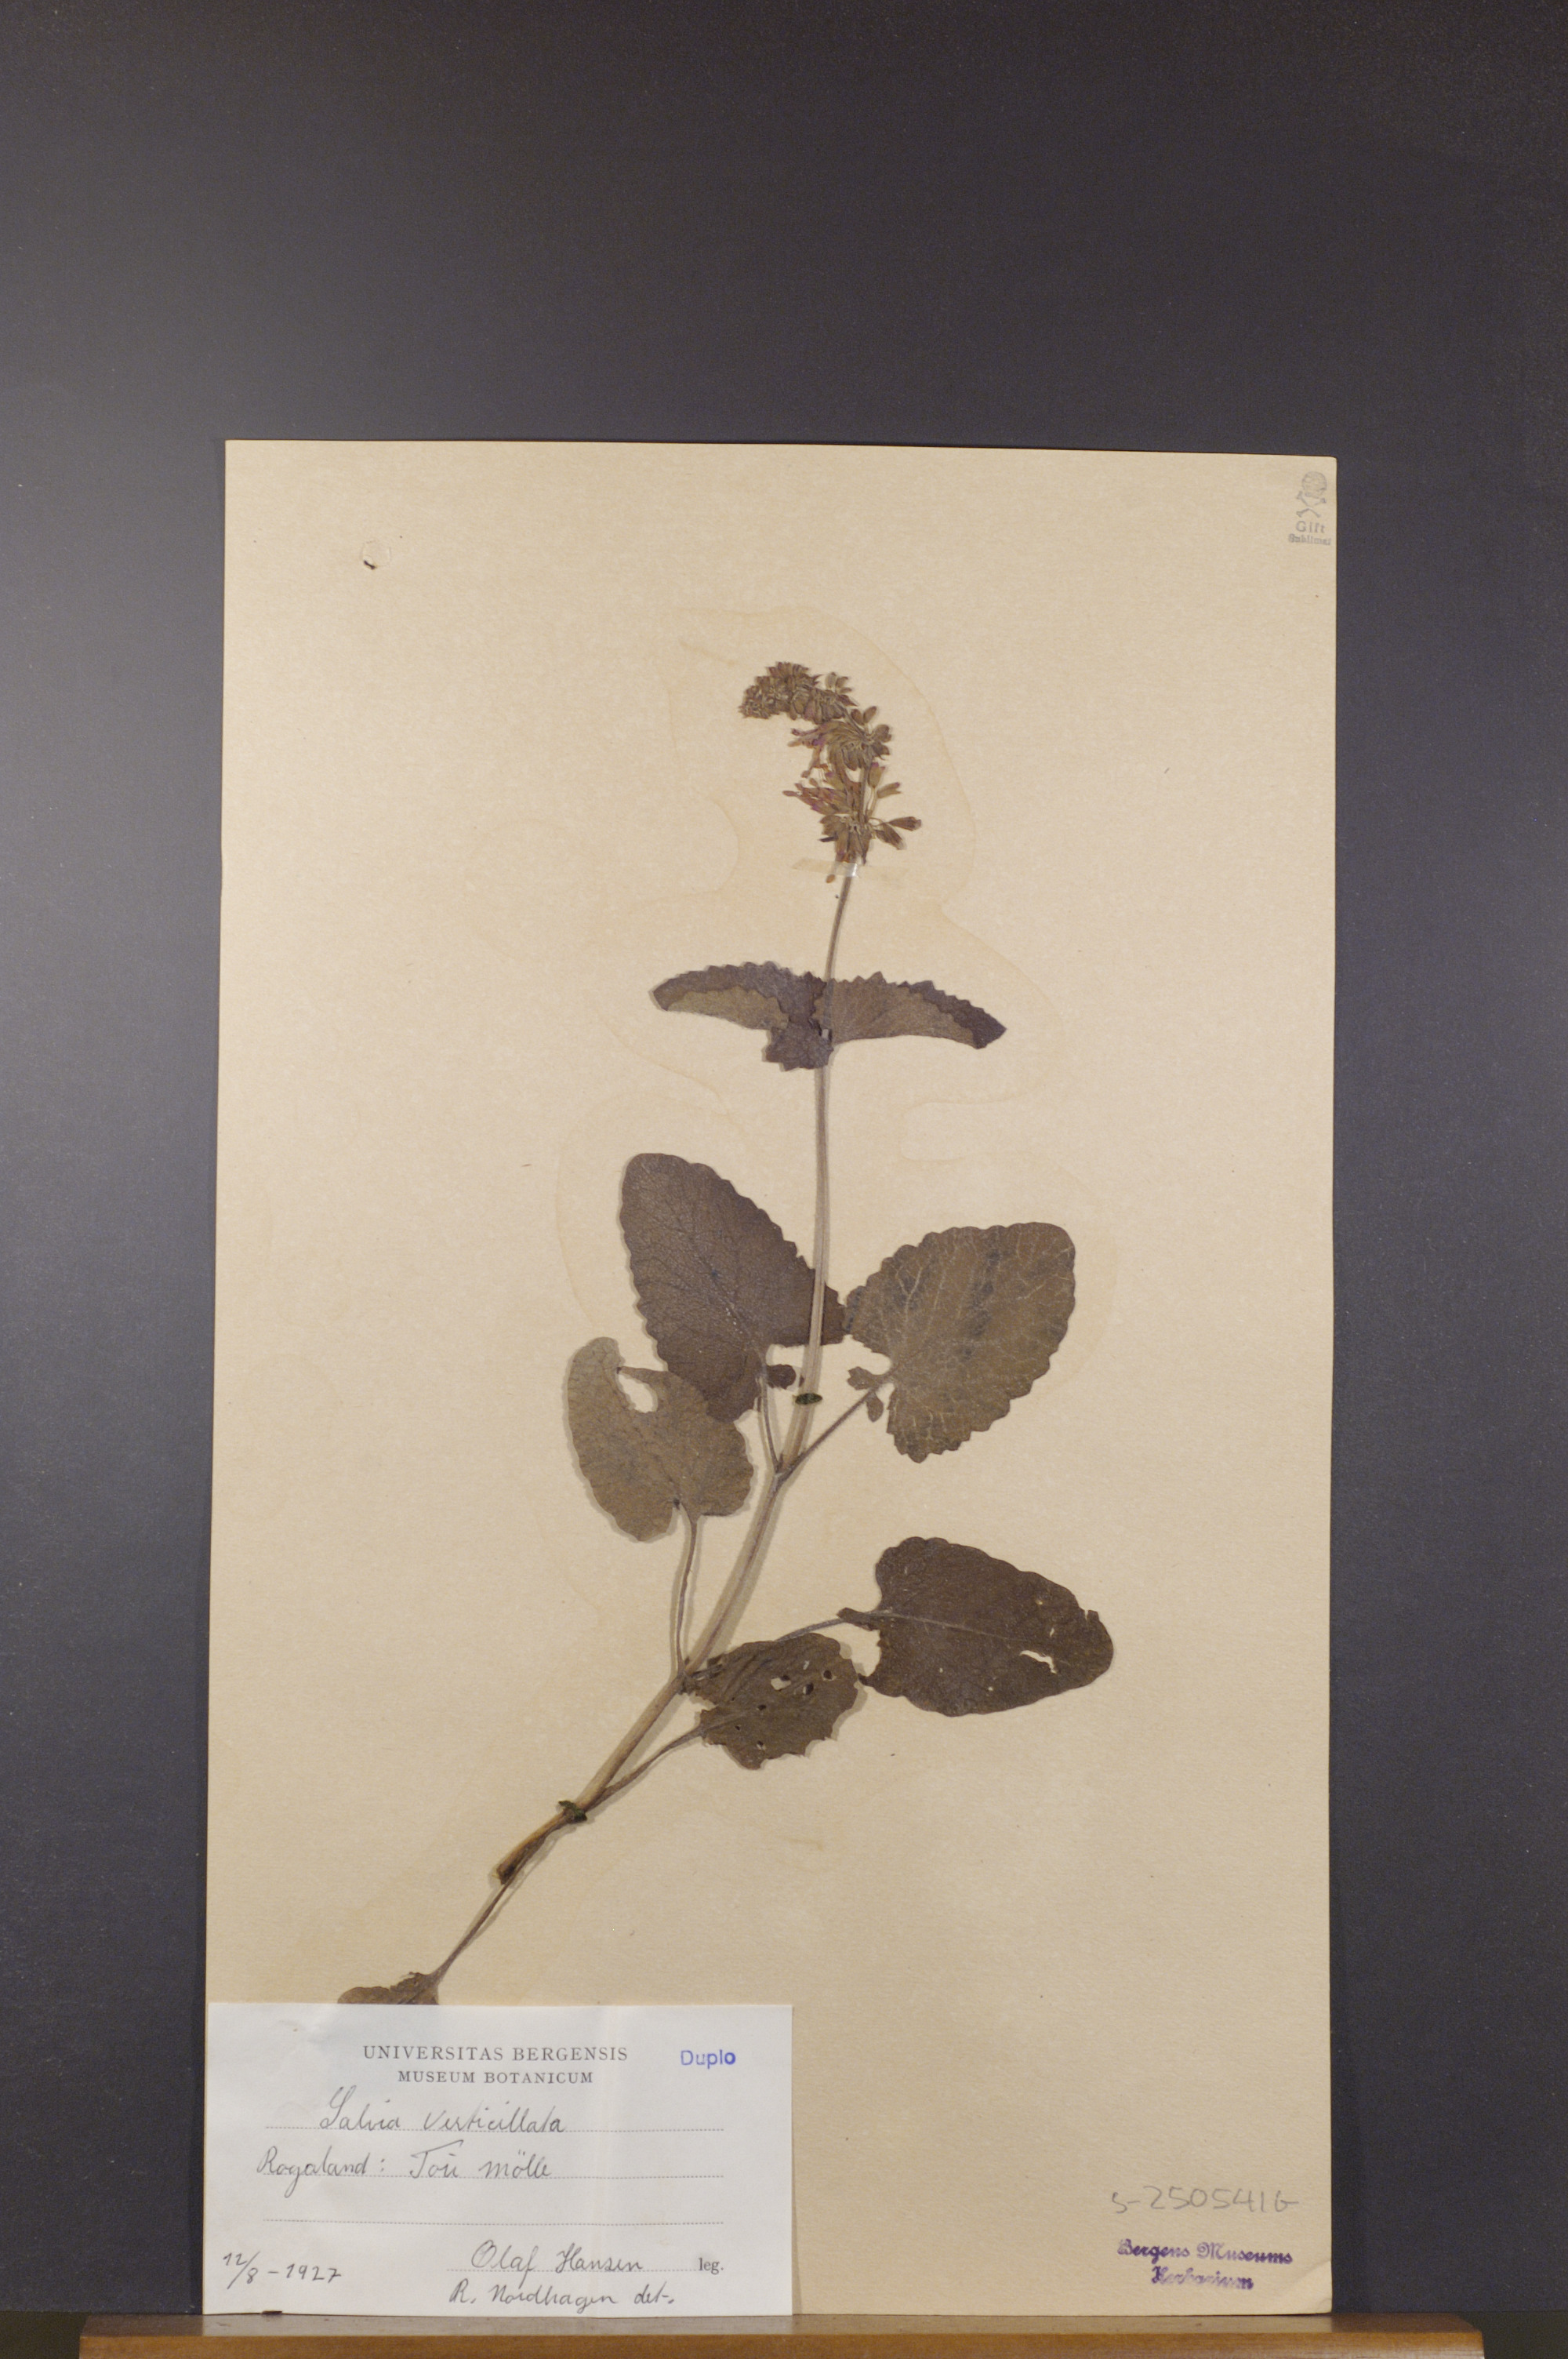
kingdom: Plantae
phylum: Tracheophyta
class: Magnoliopsida
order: Lamiales
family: Lamiaceae
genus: Salvia
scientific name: Salvia verticillata
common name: Whorled clary
